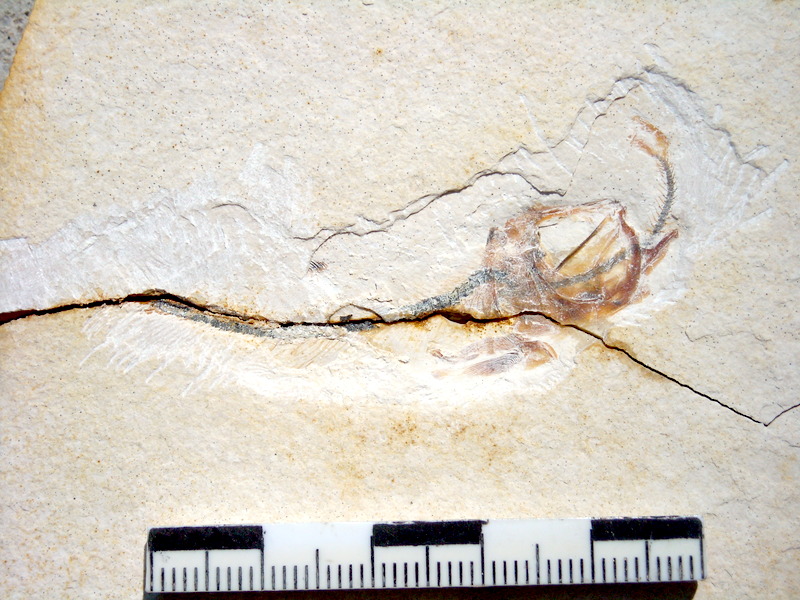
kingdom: Animalia
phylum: Chordata
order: Salmoniformes
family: Orthogonikleithridae
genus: Orthogonikleithrus
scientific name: Orthogonikleithrus hoelli
